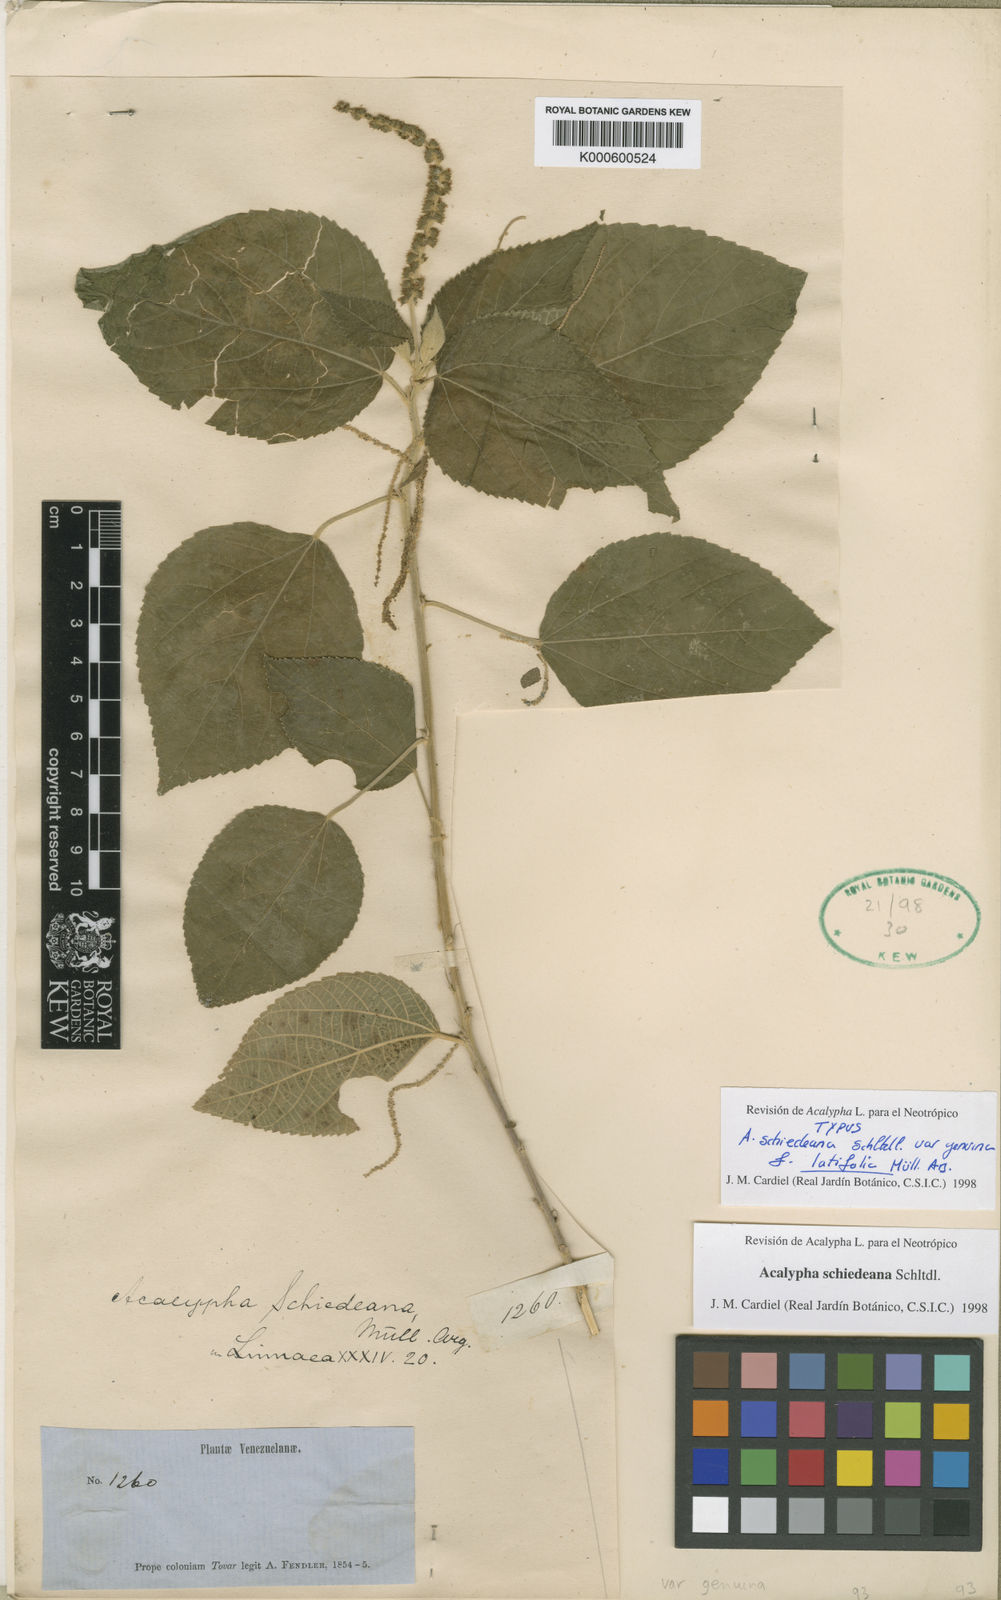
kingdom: Plantae
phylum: Tracheophyta
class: Magnoliopsida
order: Malpighiales
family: Euphorbiaceae
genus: Acalypha
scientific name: Acalypha schiedeana
